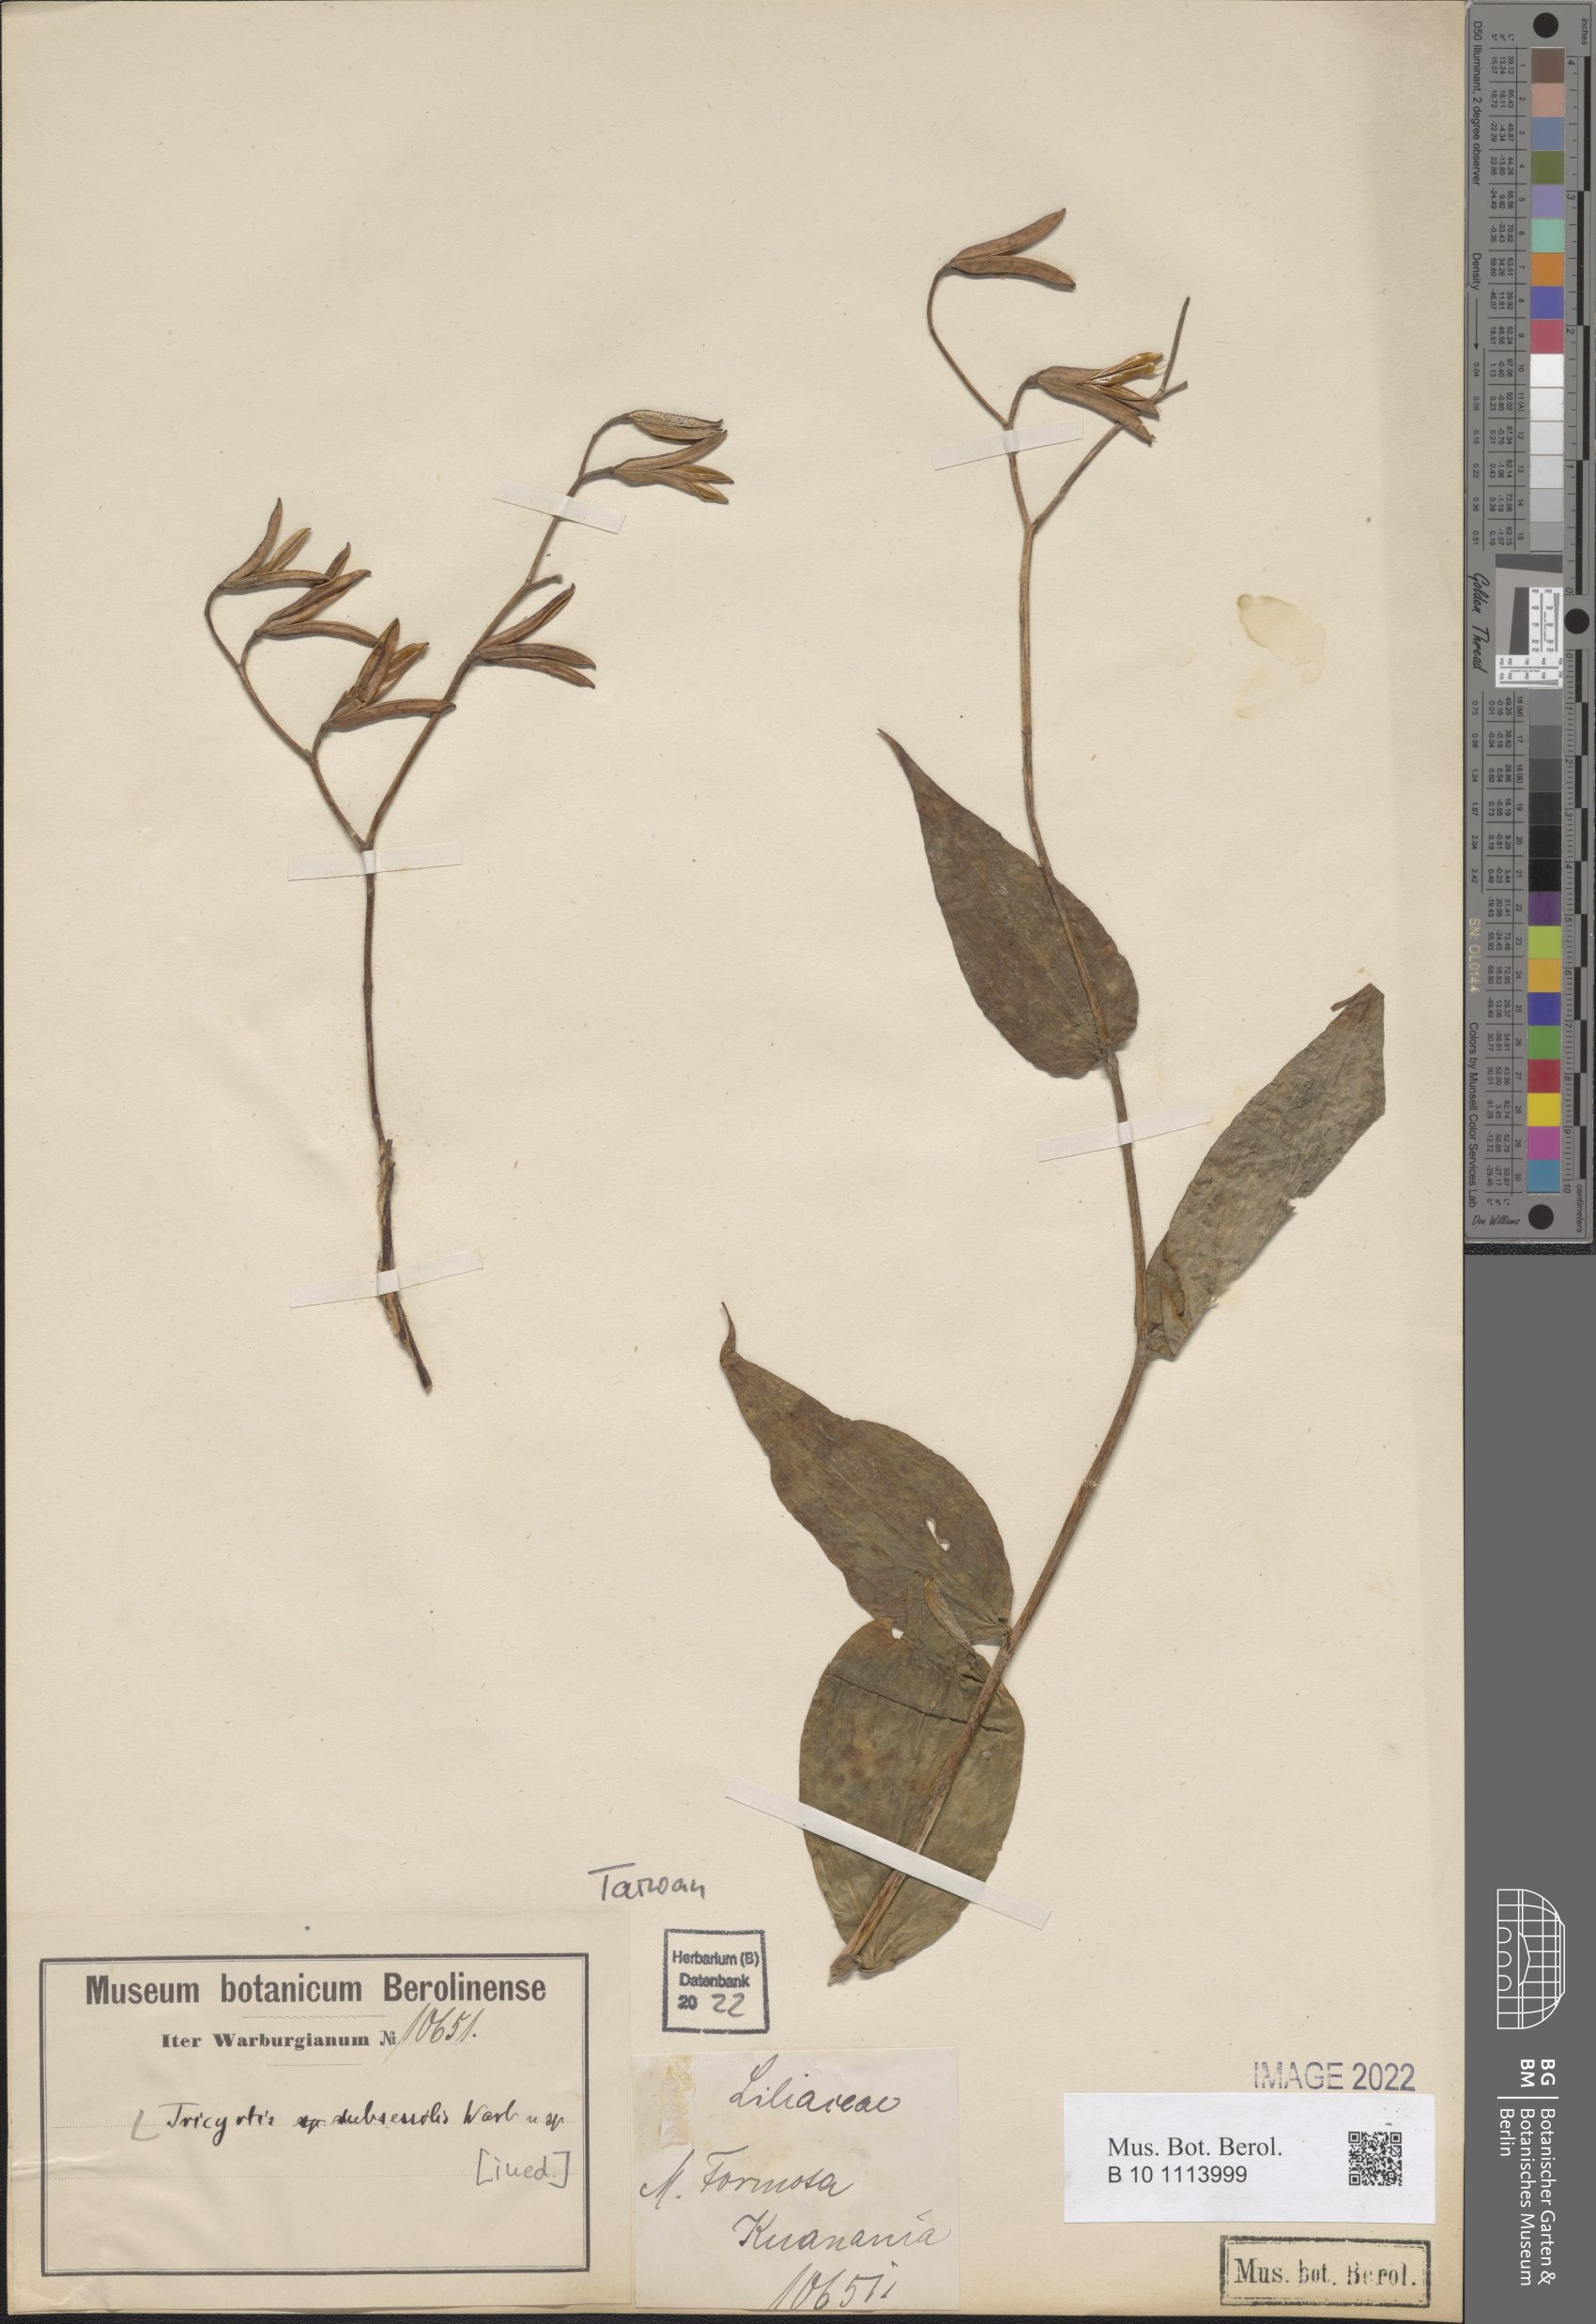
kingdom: Plantae
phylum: Tracheophyta
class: Liliopsida
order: Asparagales
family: Convallariaceae
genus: Tricyrtis
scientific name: Tricyrtis
